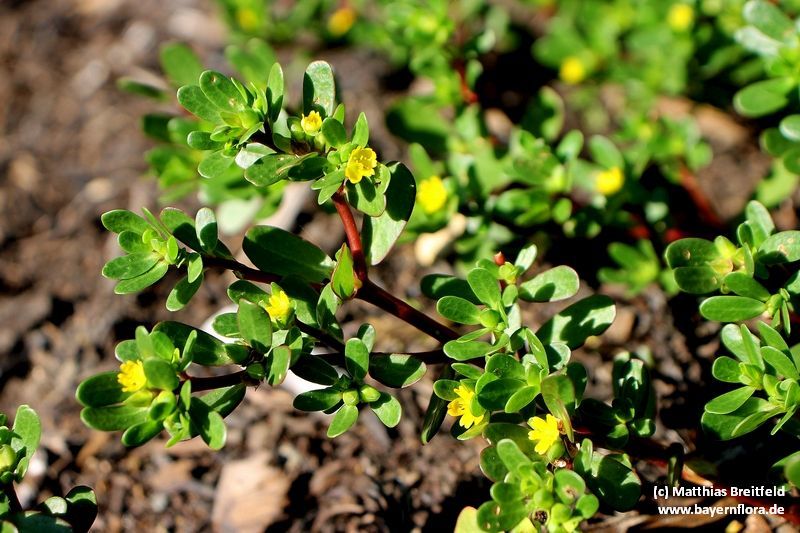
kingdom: Plantae
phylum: Tracheophyta
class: Magnoliopsida
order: Caryophyllales
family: Portulacaceae
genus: Portulaca
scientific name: Portulaca granulatostellulata
